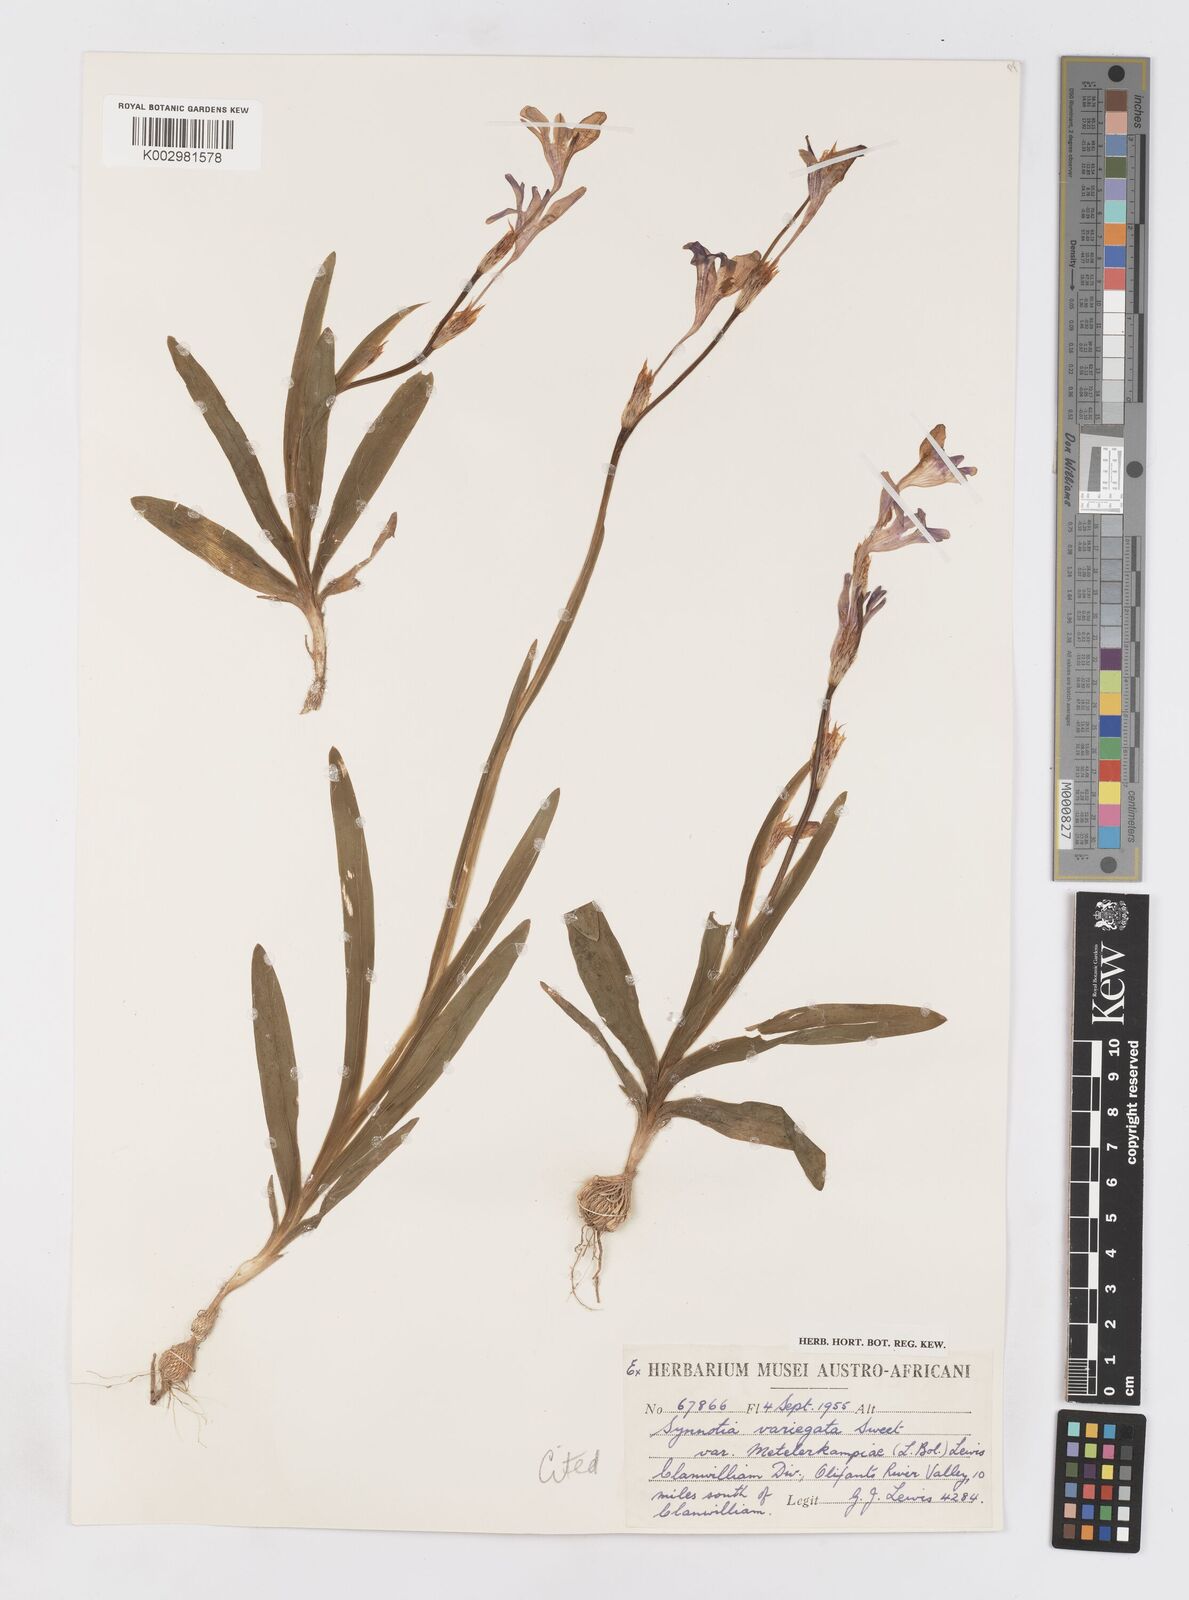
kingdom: Plantae
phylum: Tracheophyta
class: Liliopsida
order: Asparagales
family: Iridaceae
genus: Sparaxis
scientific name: Sparaxis metelerkampiae
